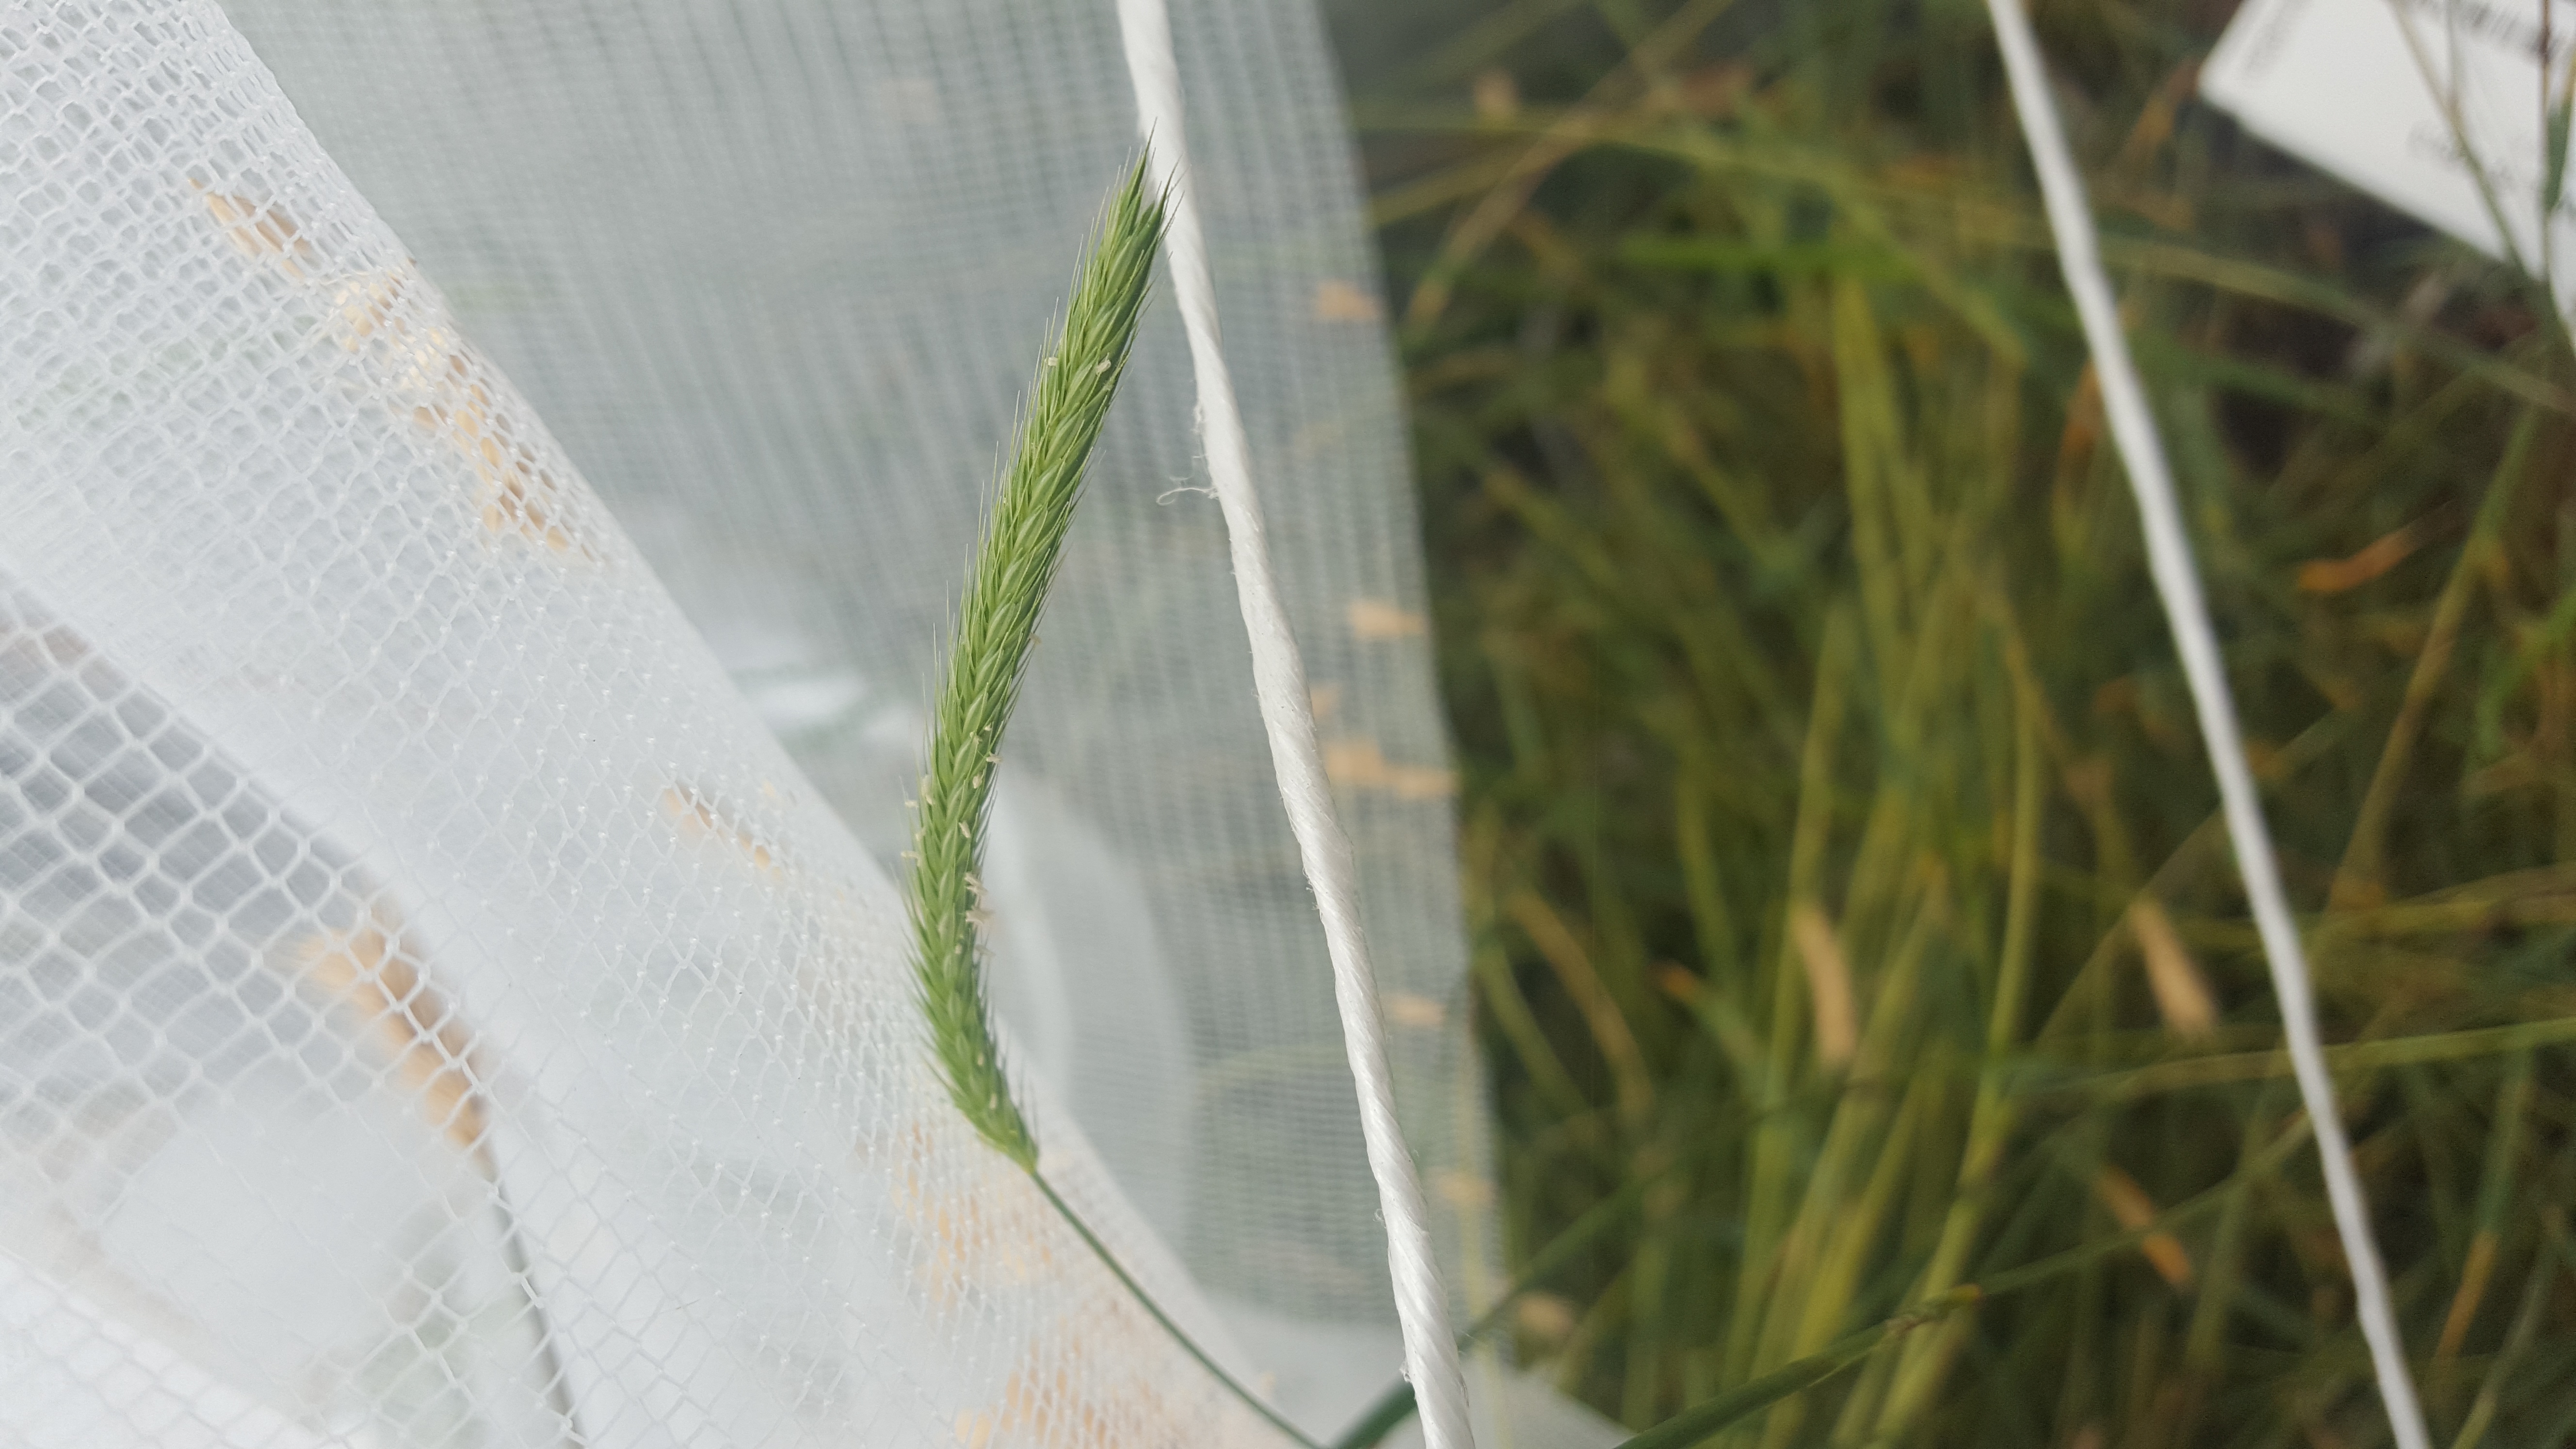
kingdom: Plantae
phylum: Tracheophyta
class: Liliopsida
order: Poales
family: Poaceae
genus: Hordeum
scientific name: Hordeum flexuosum
